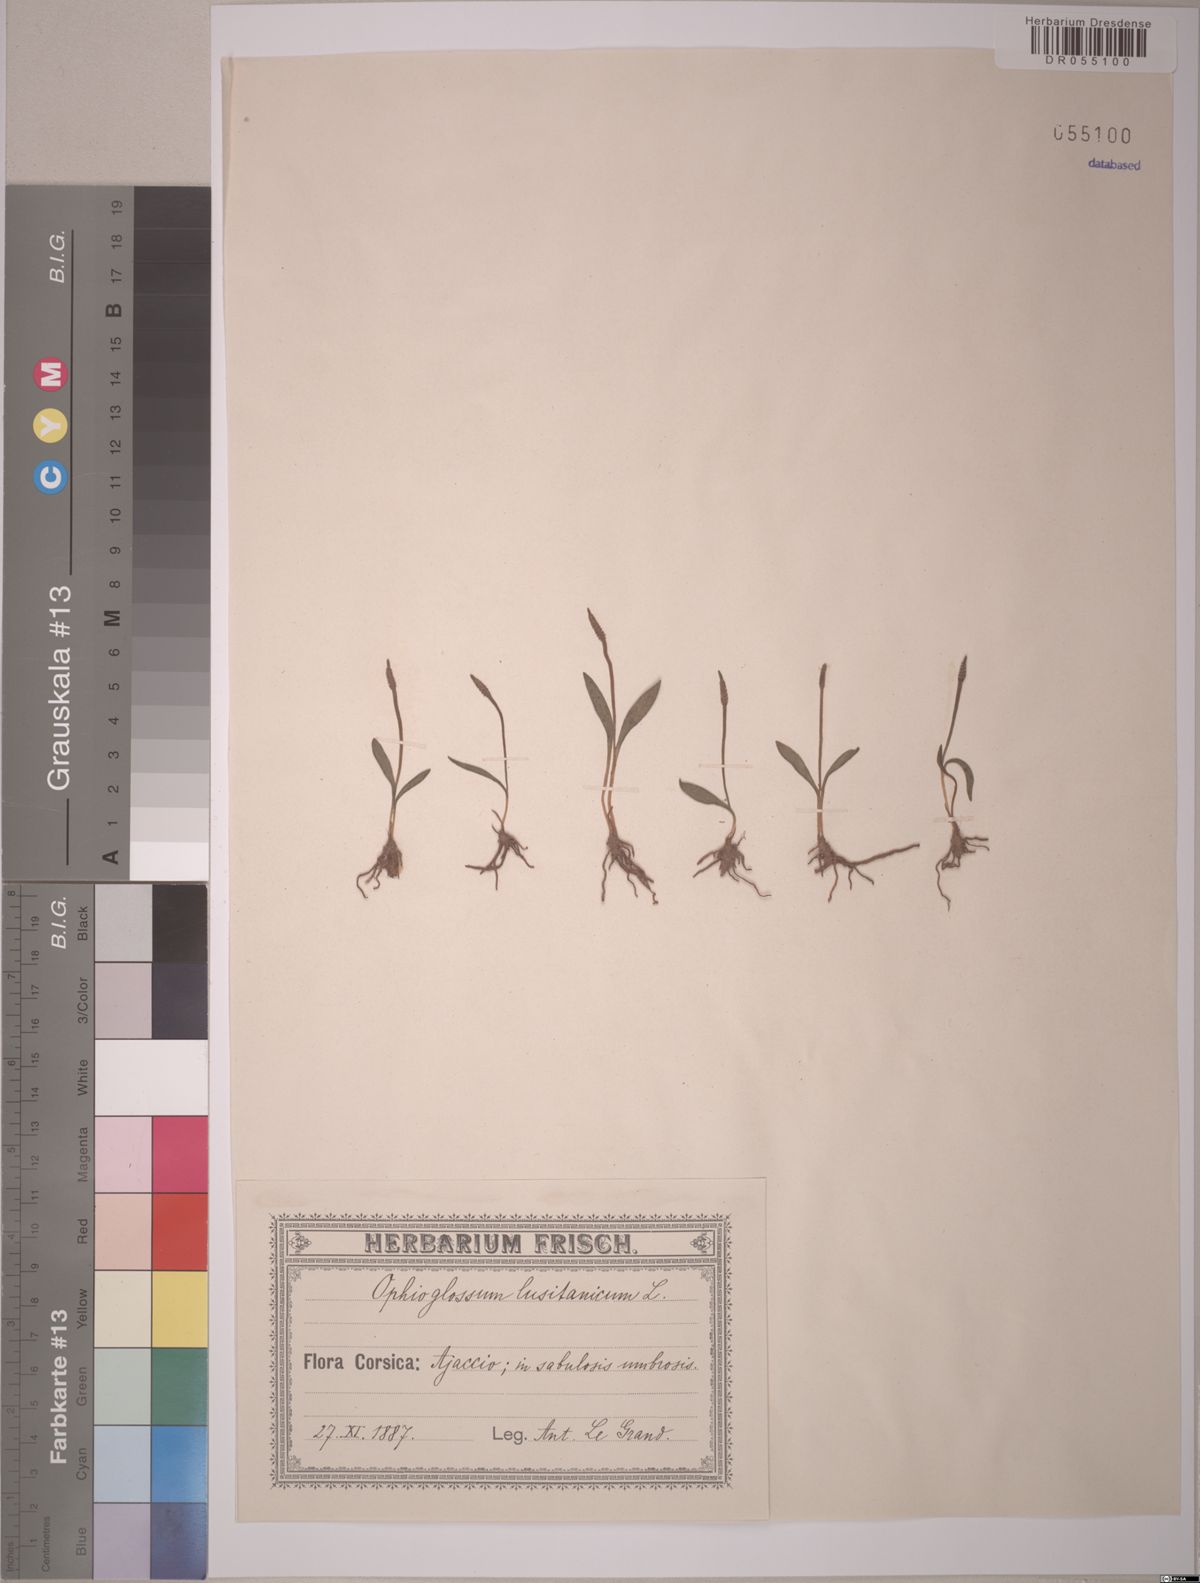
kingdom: Plantae
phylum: Tracheophyta
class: Polypodiopsida
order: Ophioglossales
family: Ophioglossaceae
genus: Ophioglossum
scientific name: Ophioglossum lusitanicum
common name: Least adder's-tongue
